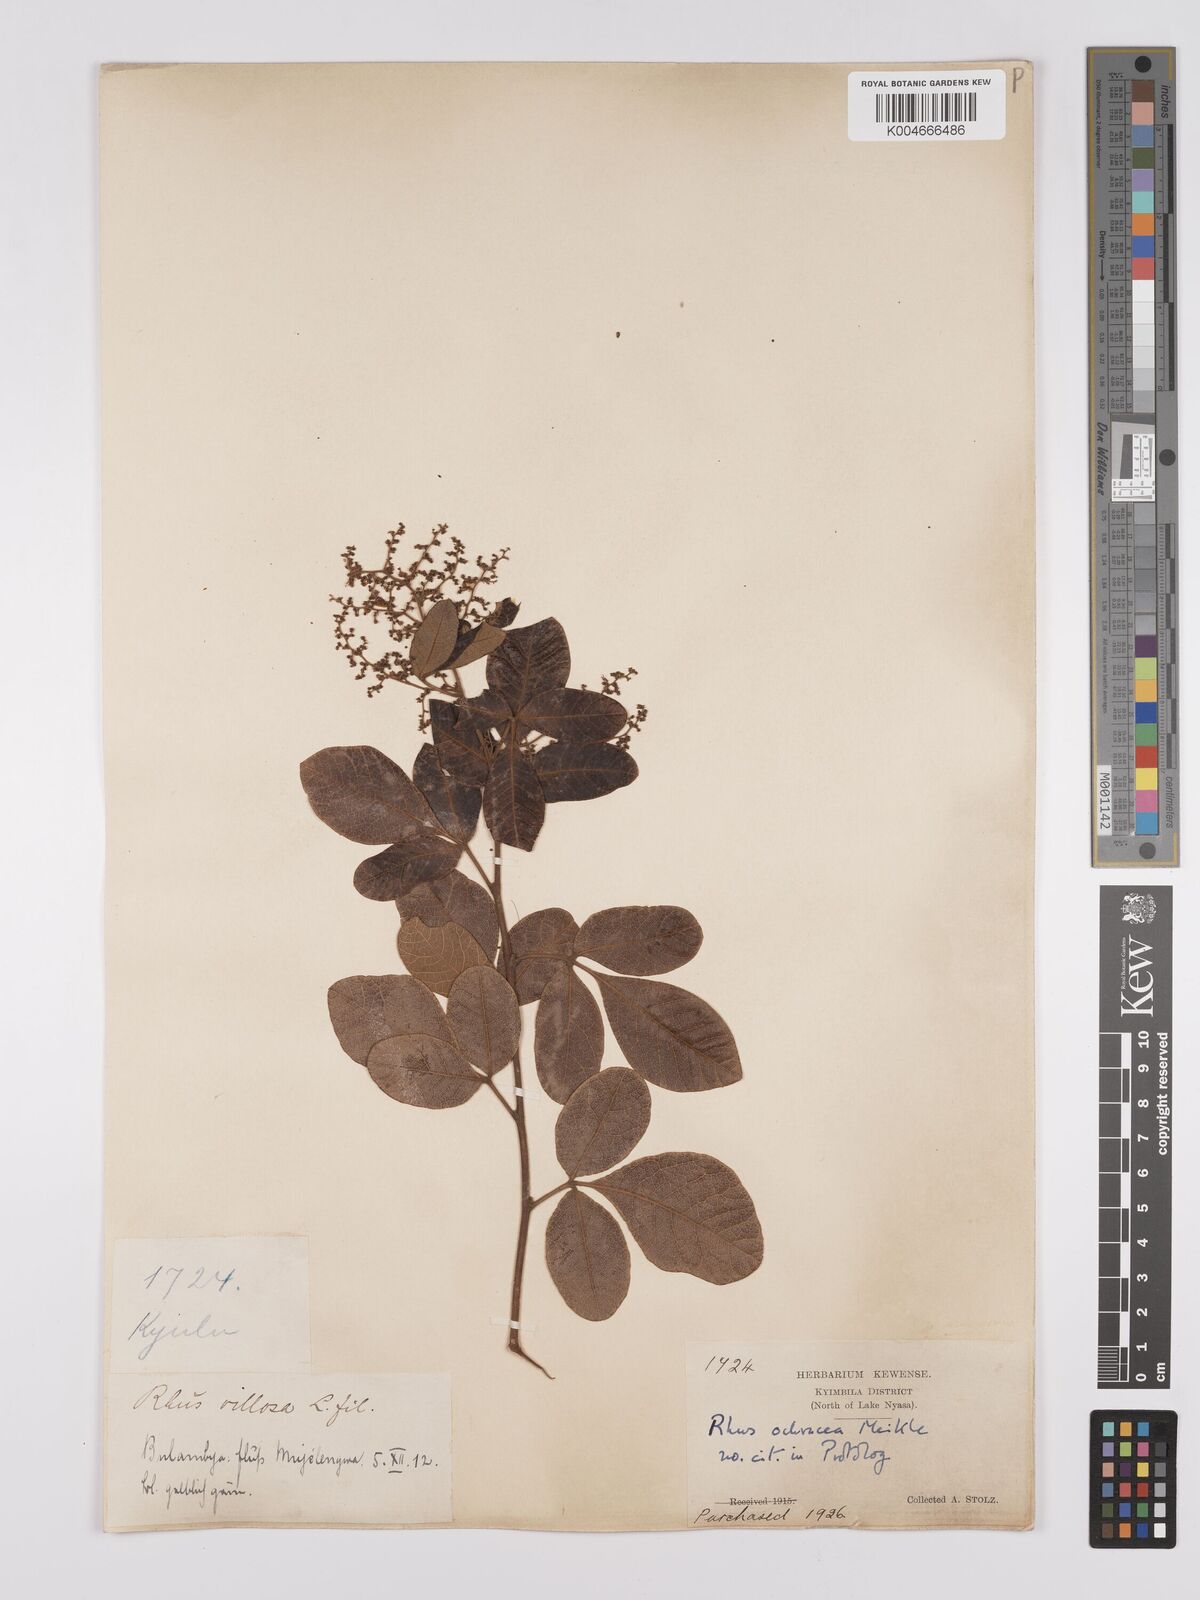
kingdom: Plantae
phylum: Tracheophyta
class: Magnoliopsida
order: Sapindales
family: Anacardiaceae
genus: Searsia
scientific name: Searsia ochracea
